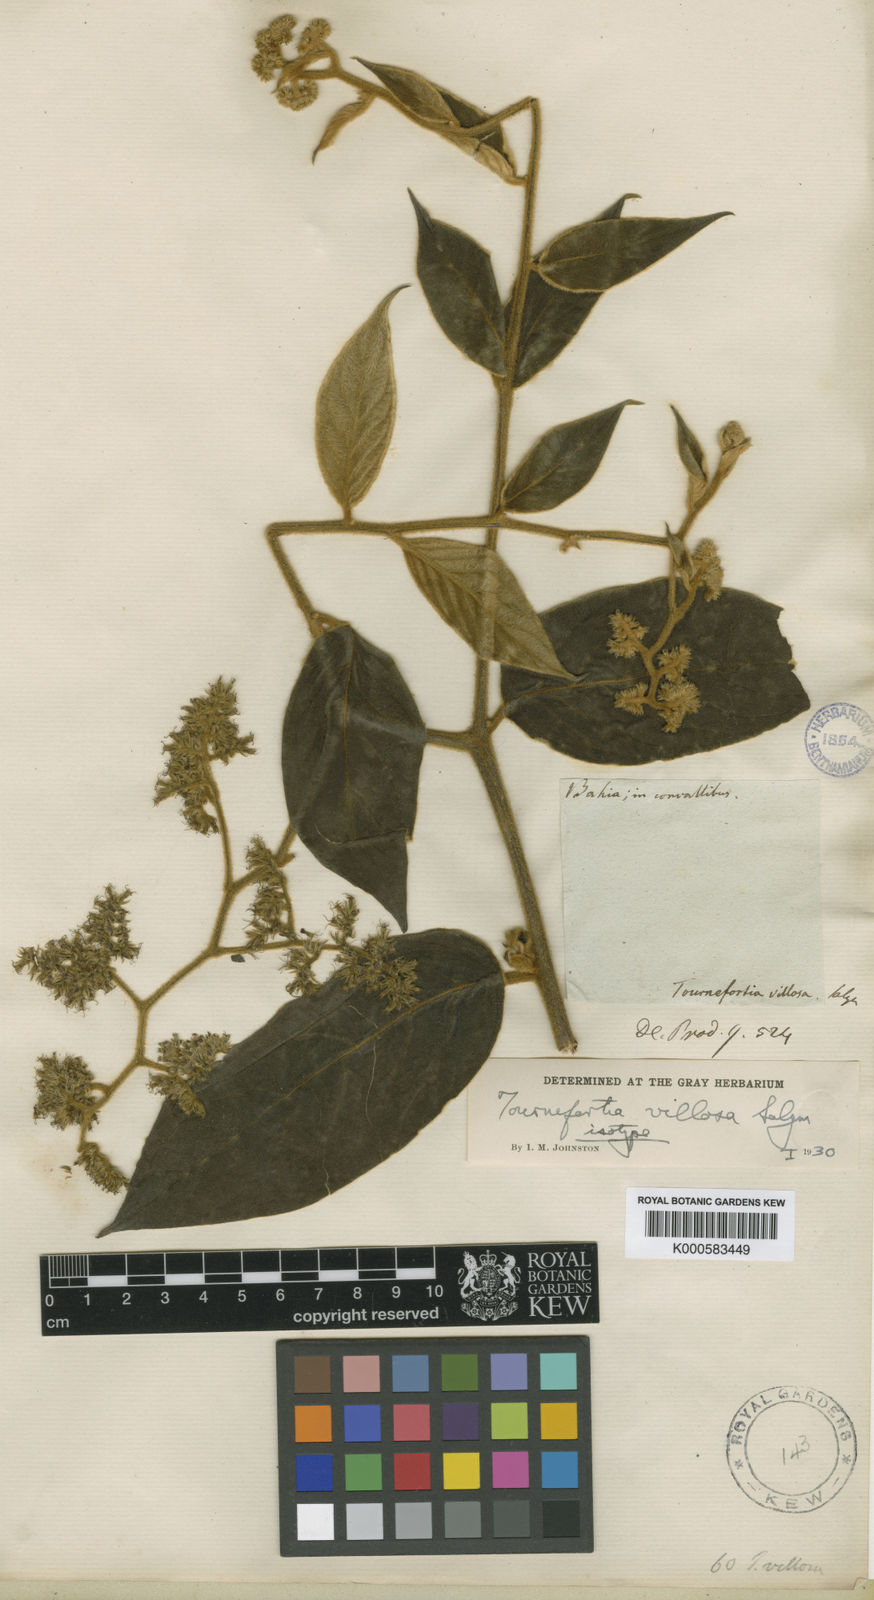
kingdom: Plantae
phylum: Tracheophyta
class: Magnoliopsida
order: Boraginales
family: Heliotropiaceae
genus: Myriopus
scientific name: Myriopus
